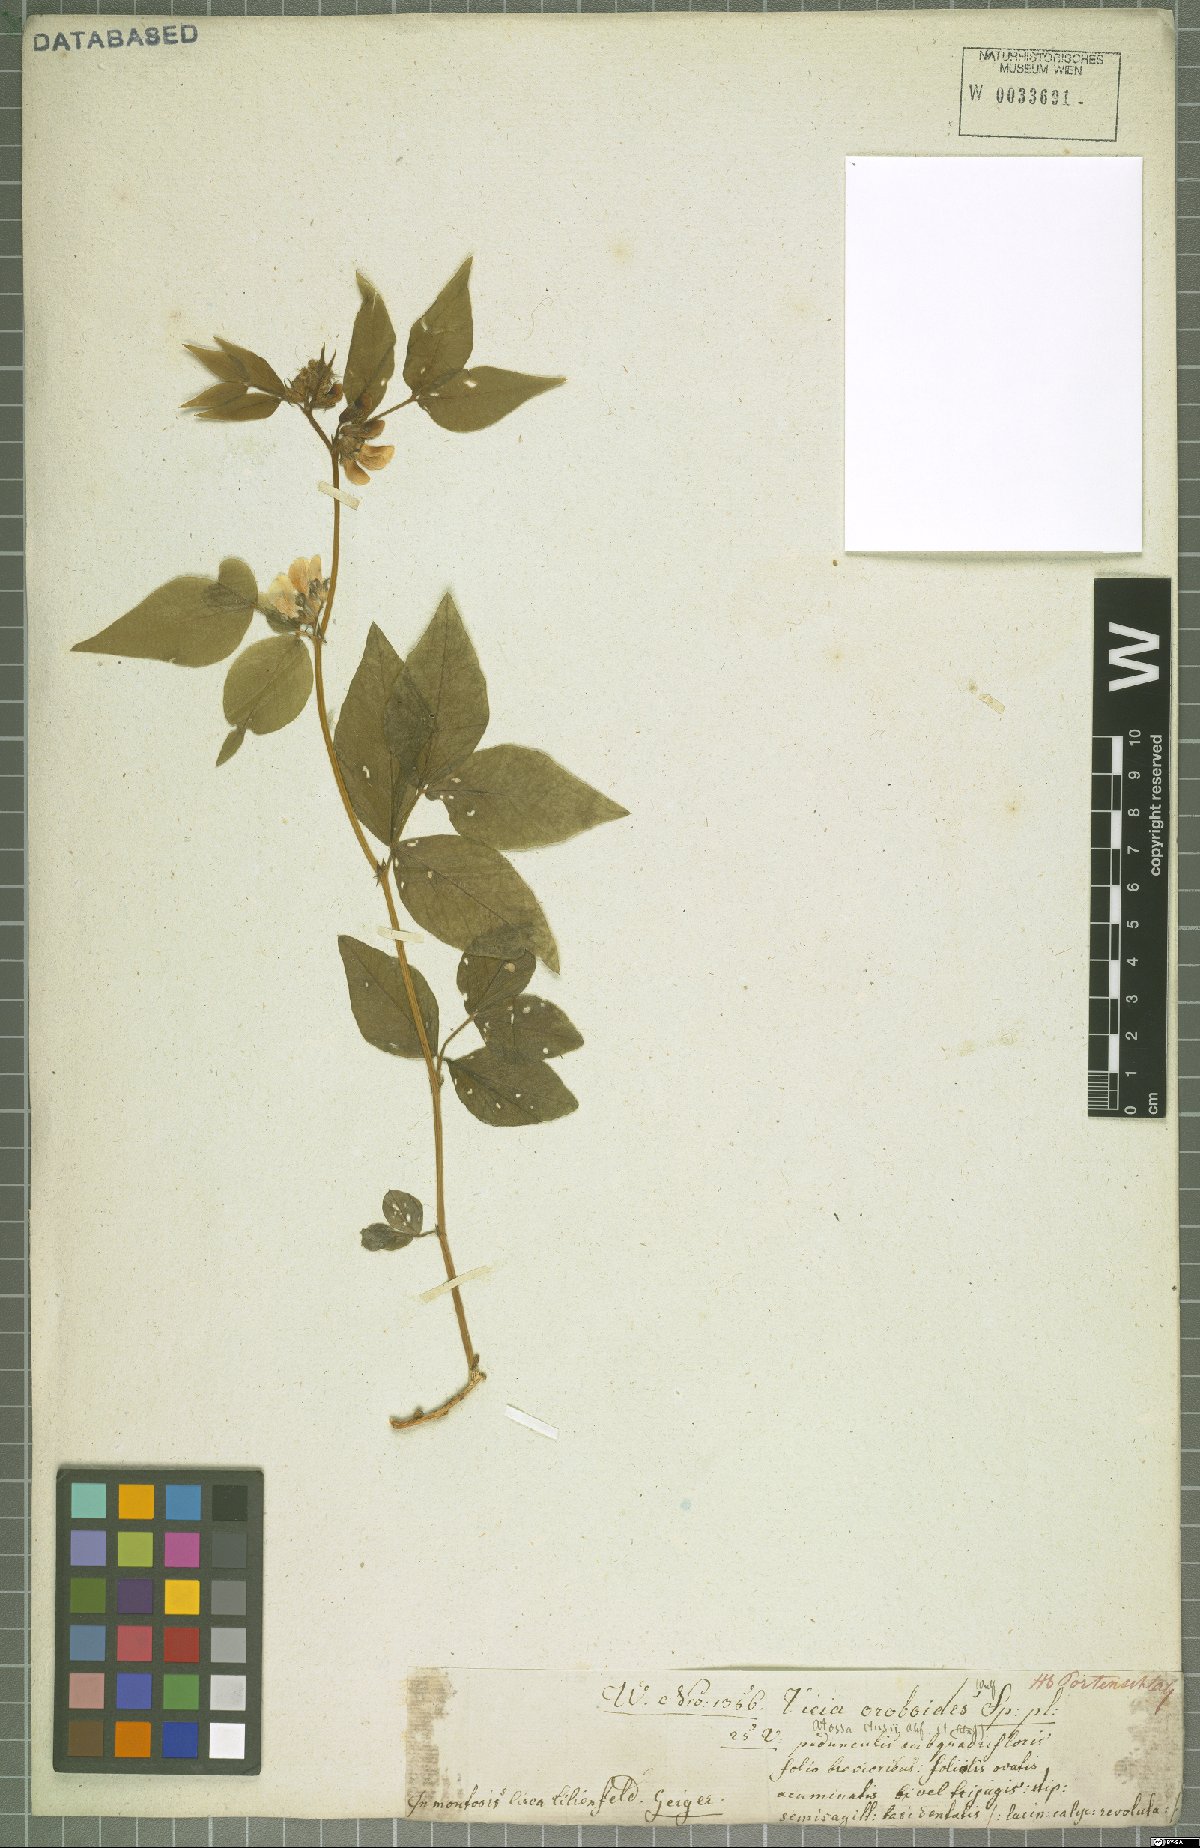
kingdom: Plantae
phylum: Tracheophyta
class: Magnoliopsida
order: Fabales
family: Fabaceae
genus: Vicia
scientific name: Vicia oroboides
